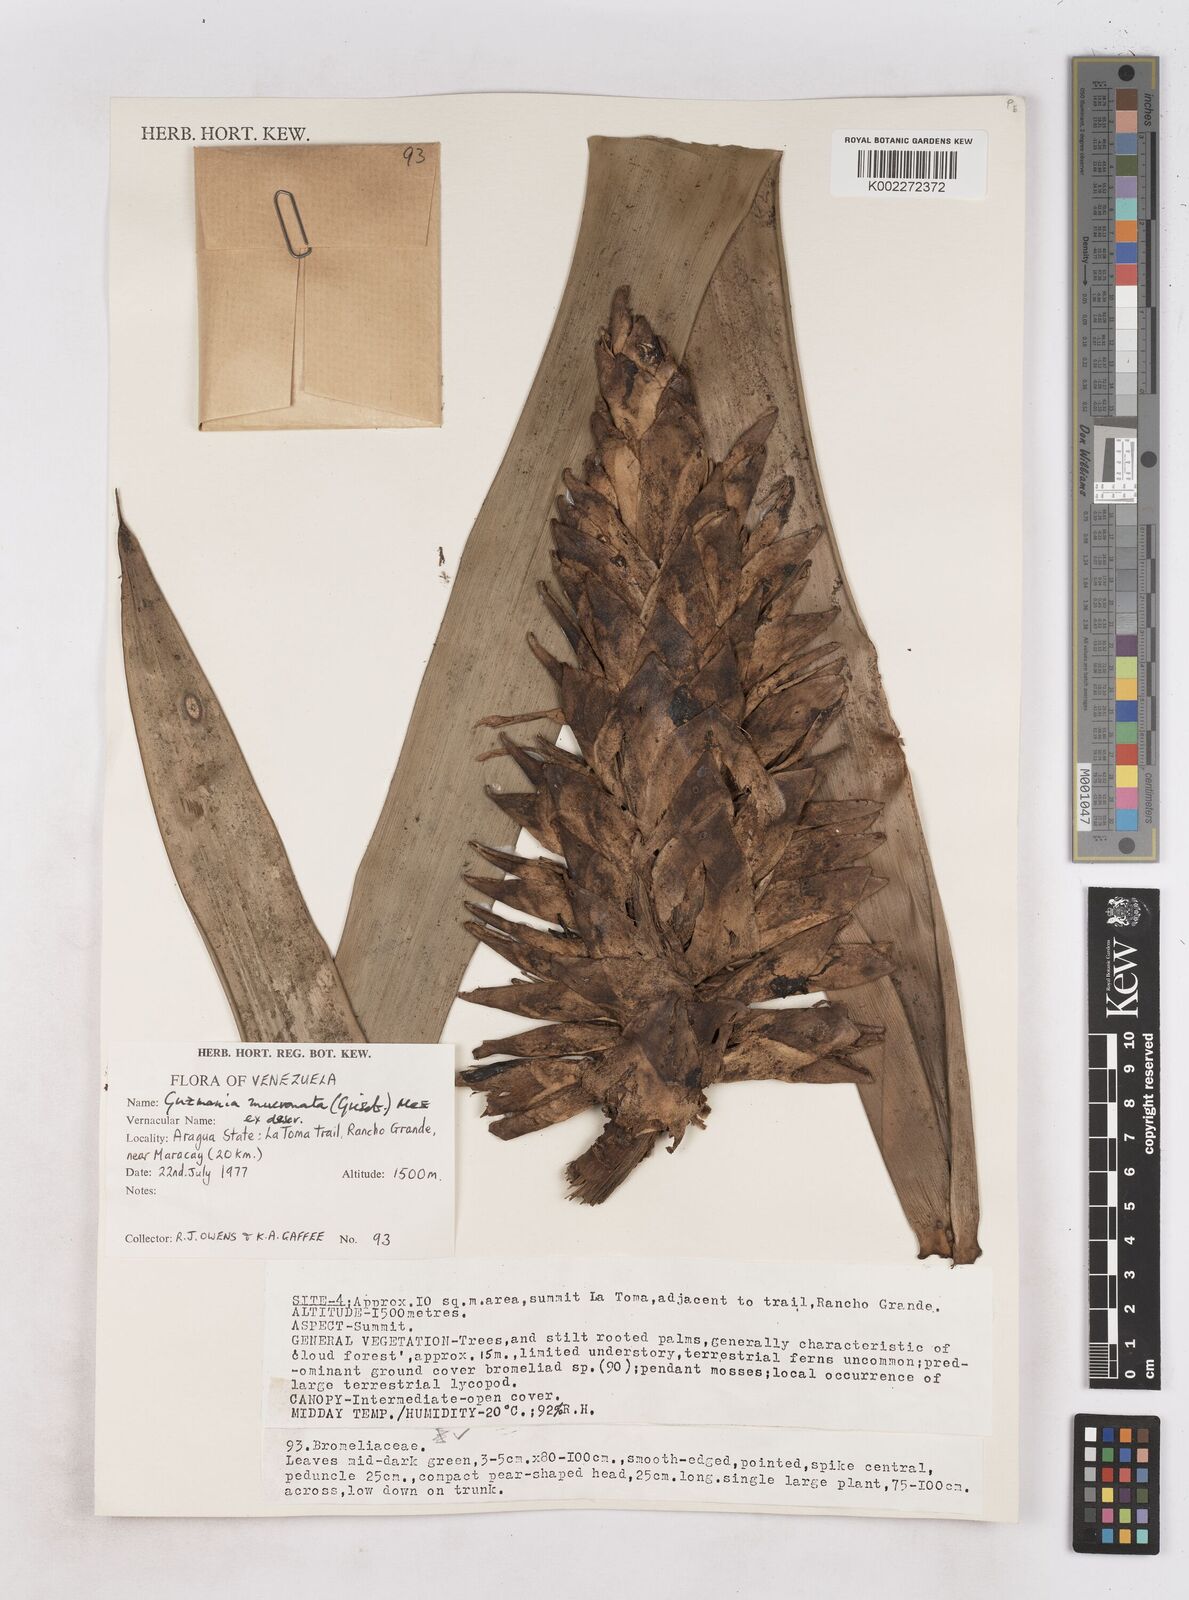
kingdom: Plantae
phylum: Tracheophyta
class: Liliopsida
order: Poales
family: Bromeliaceae
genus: Guzmania
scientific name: Guzmania mucronata
